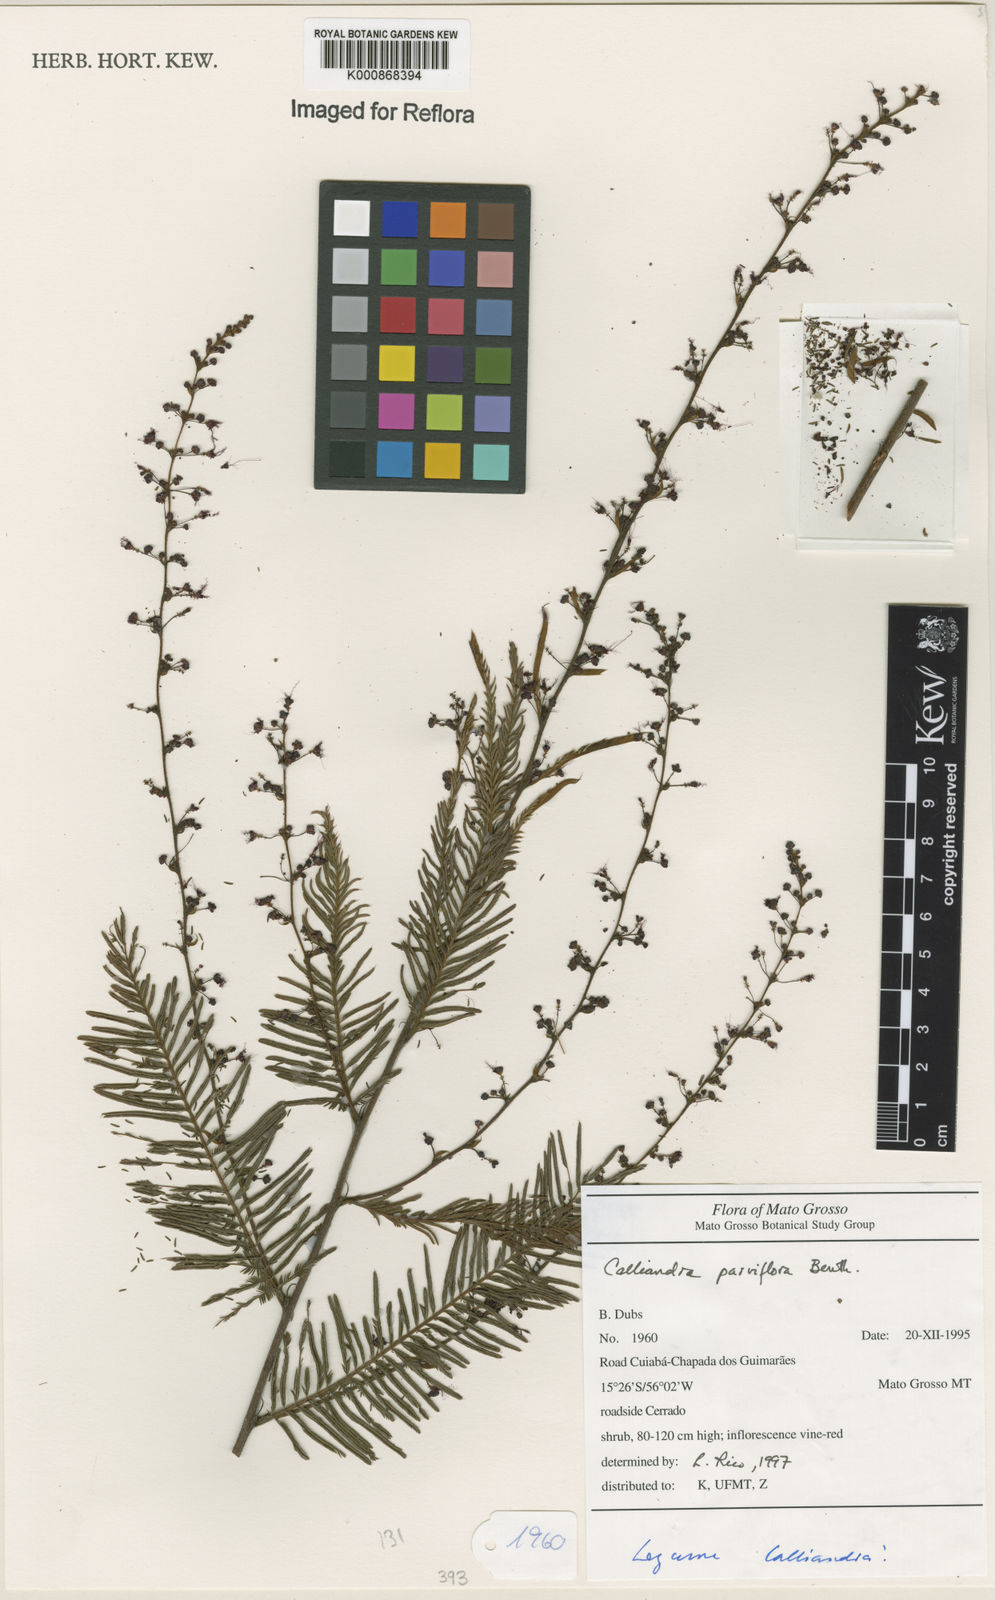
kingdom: Plantae
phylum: Tracheophyta
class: Magnoliopsida
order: Fabales
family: Fabaceae
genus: Calliandra
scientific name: Calliandra parviflora
